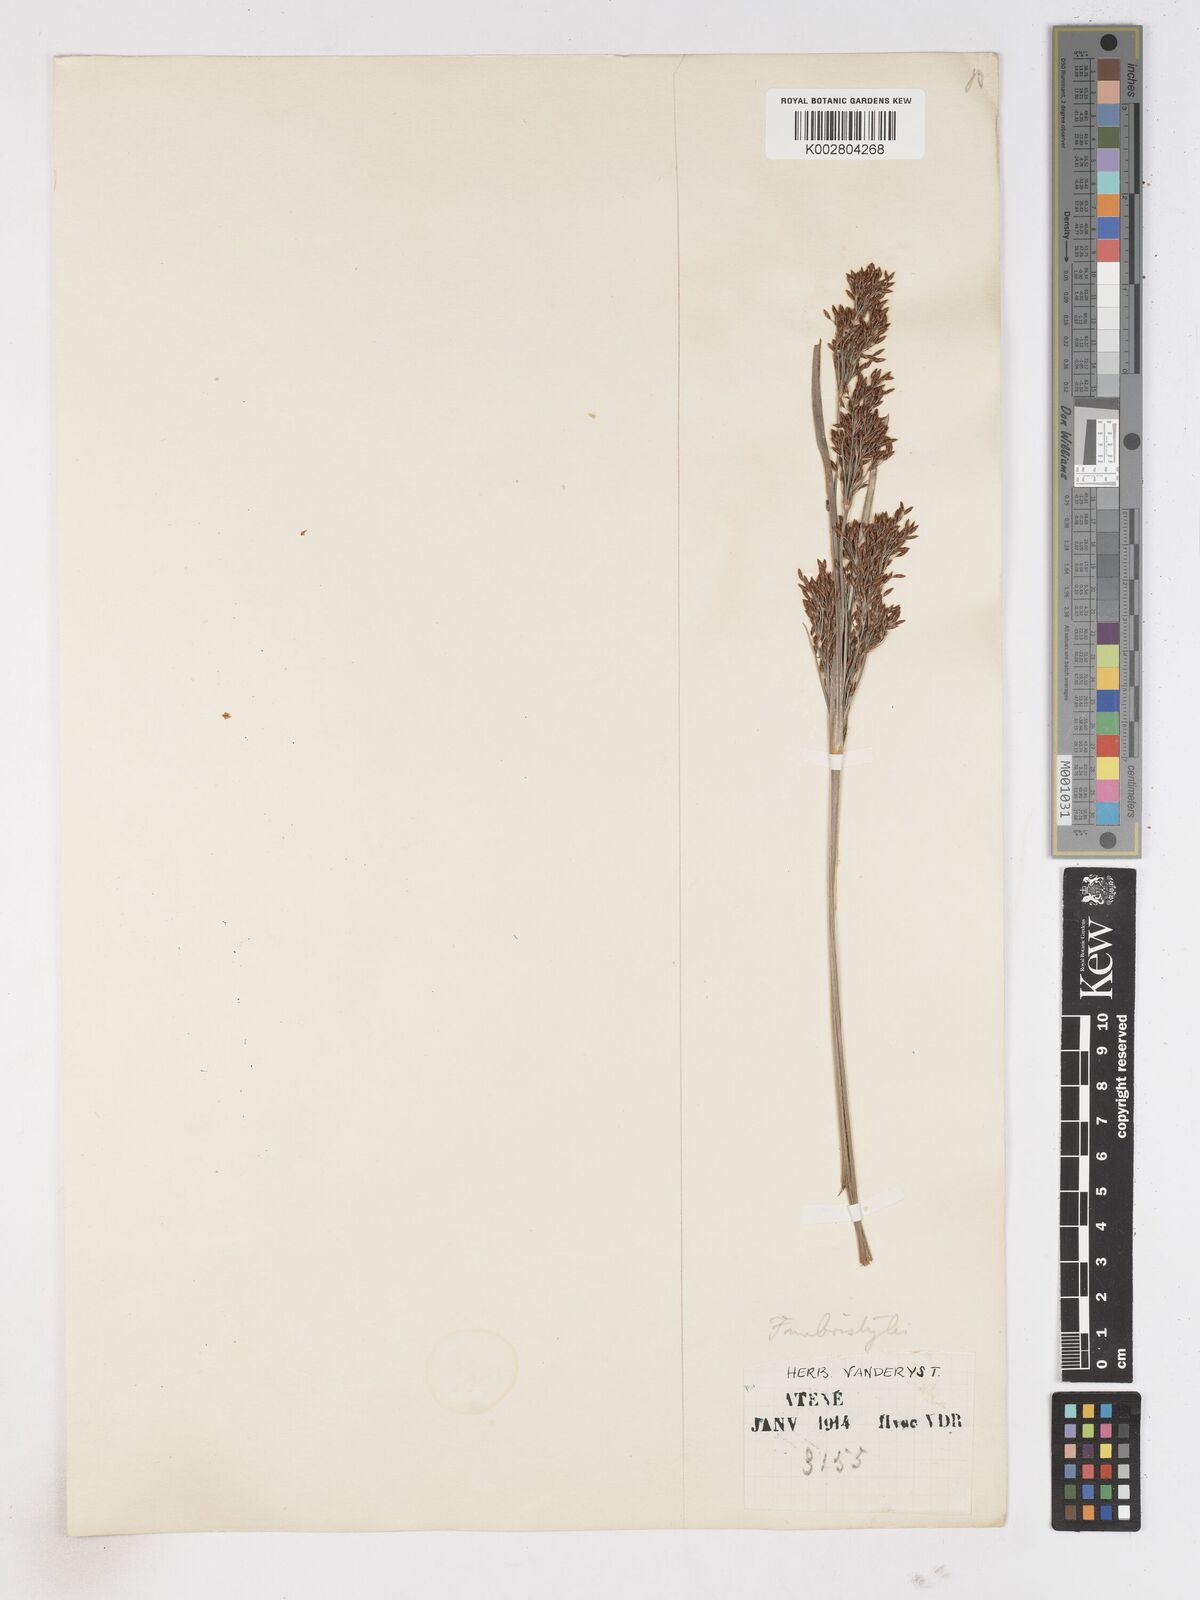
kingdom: Plantae
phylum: Tracheophyta
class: Liliopsida
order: Poales
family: Cyperaceae
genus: Fimbristylis
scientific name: Fimbristylis dura
